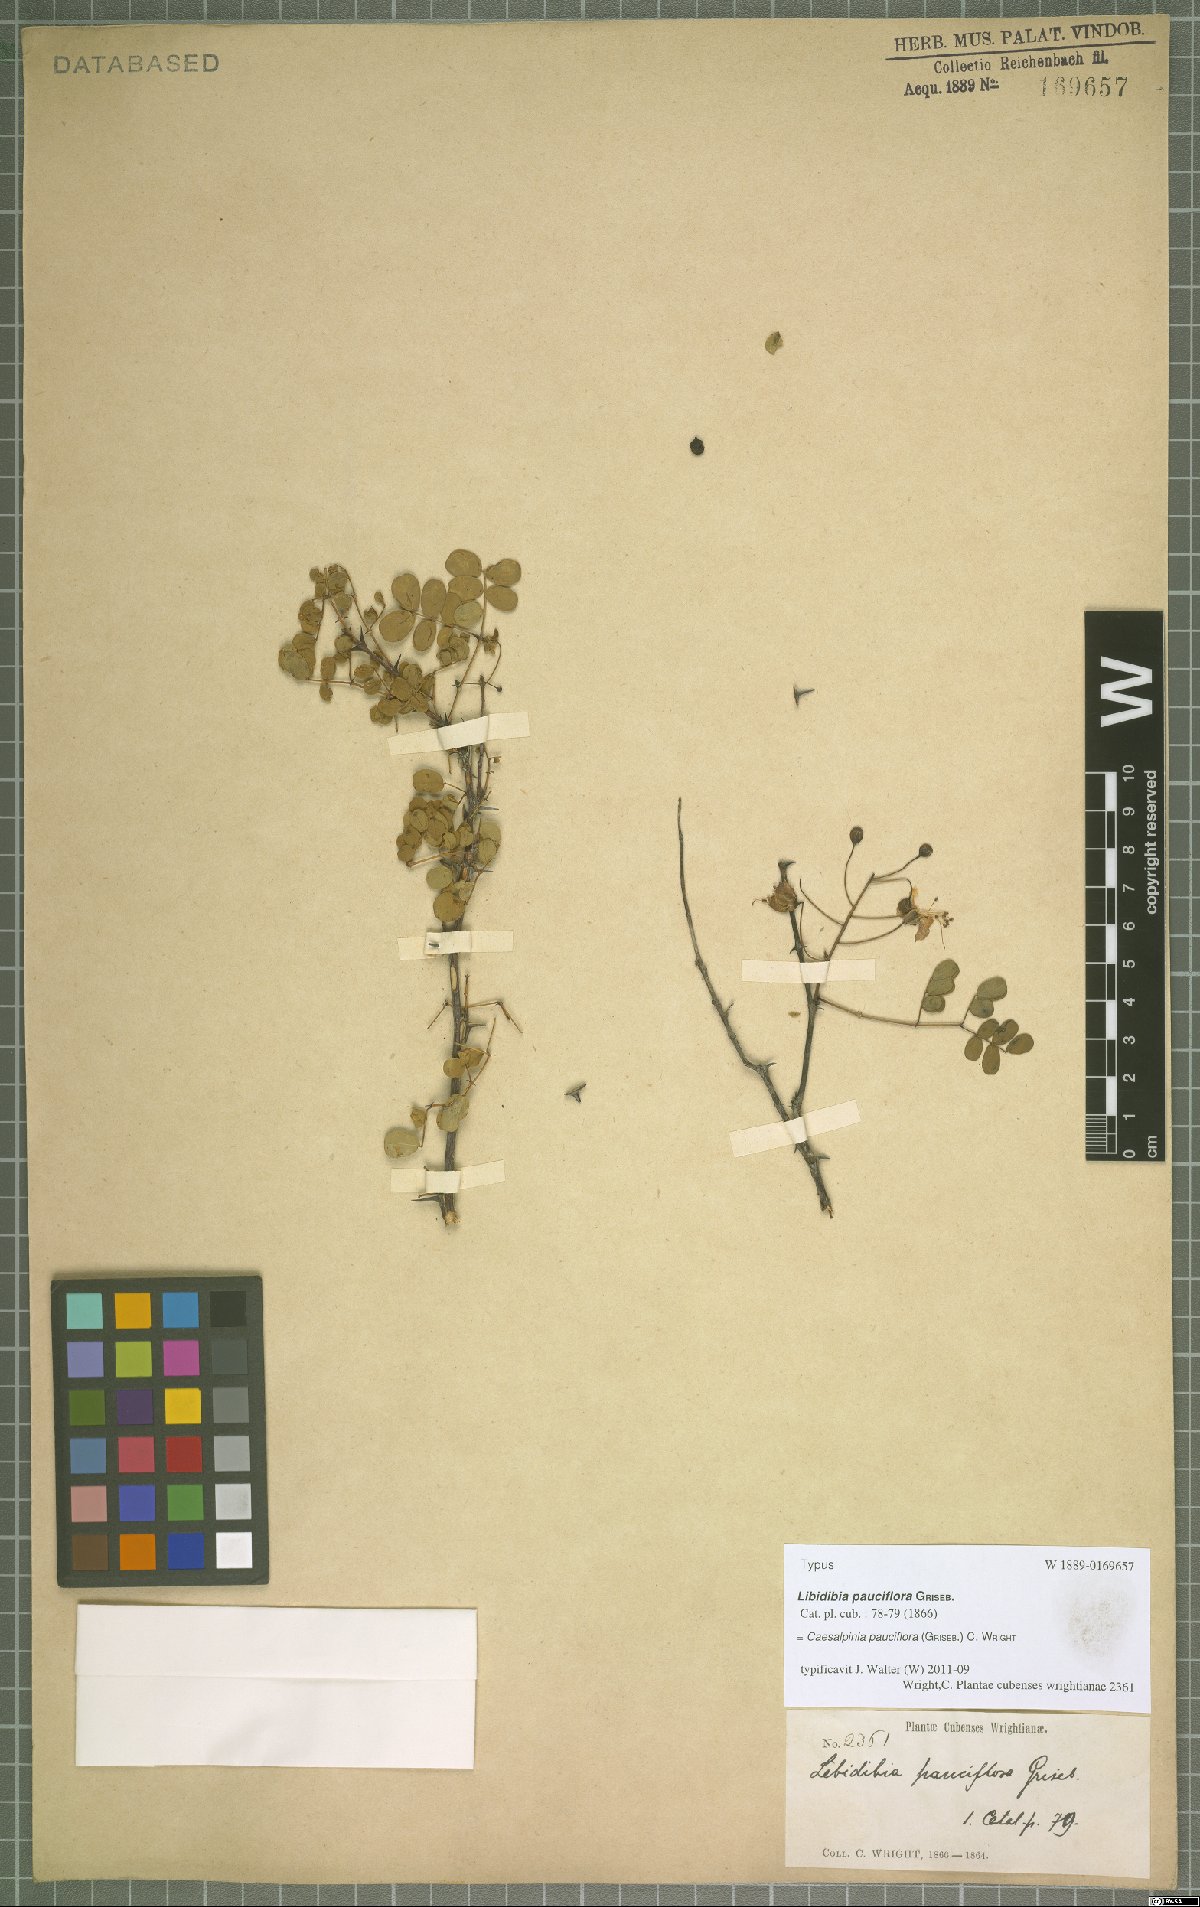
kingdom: Plantae
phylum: Tracheophyta
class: Magnoliopsida
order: Fabales
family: Fabaceae
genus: Denisophytum
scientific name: Denisophytum pauciflorum
